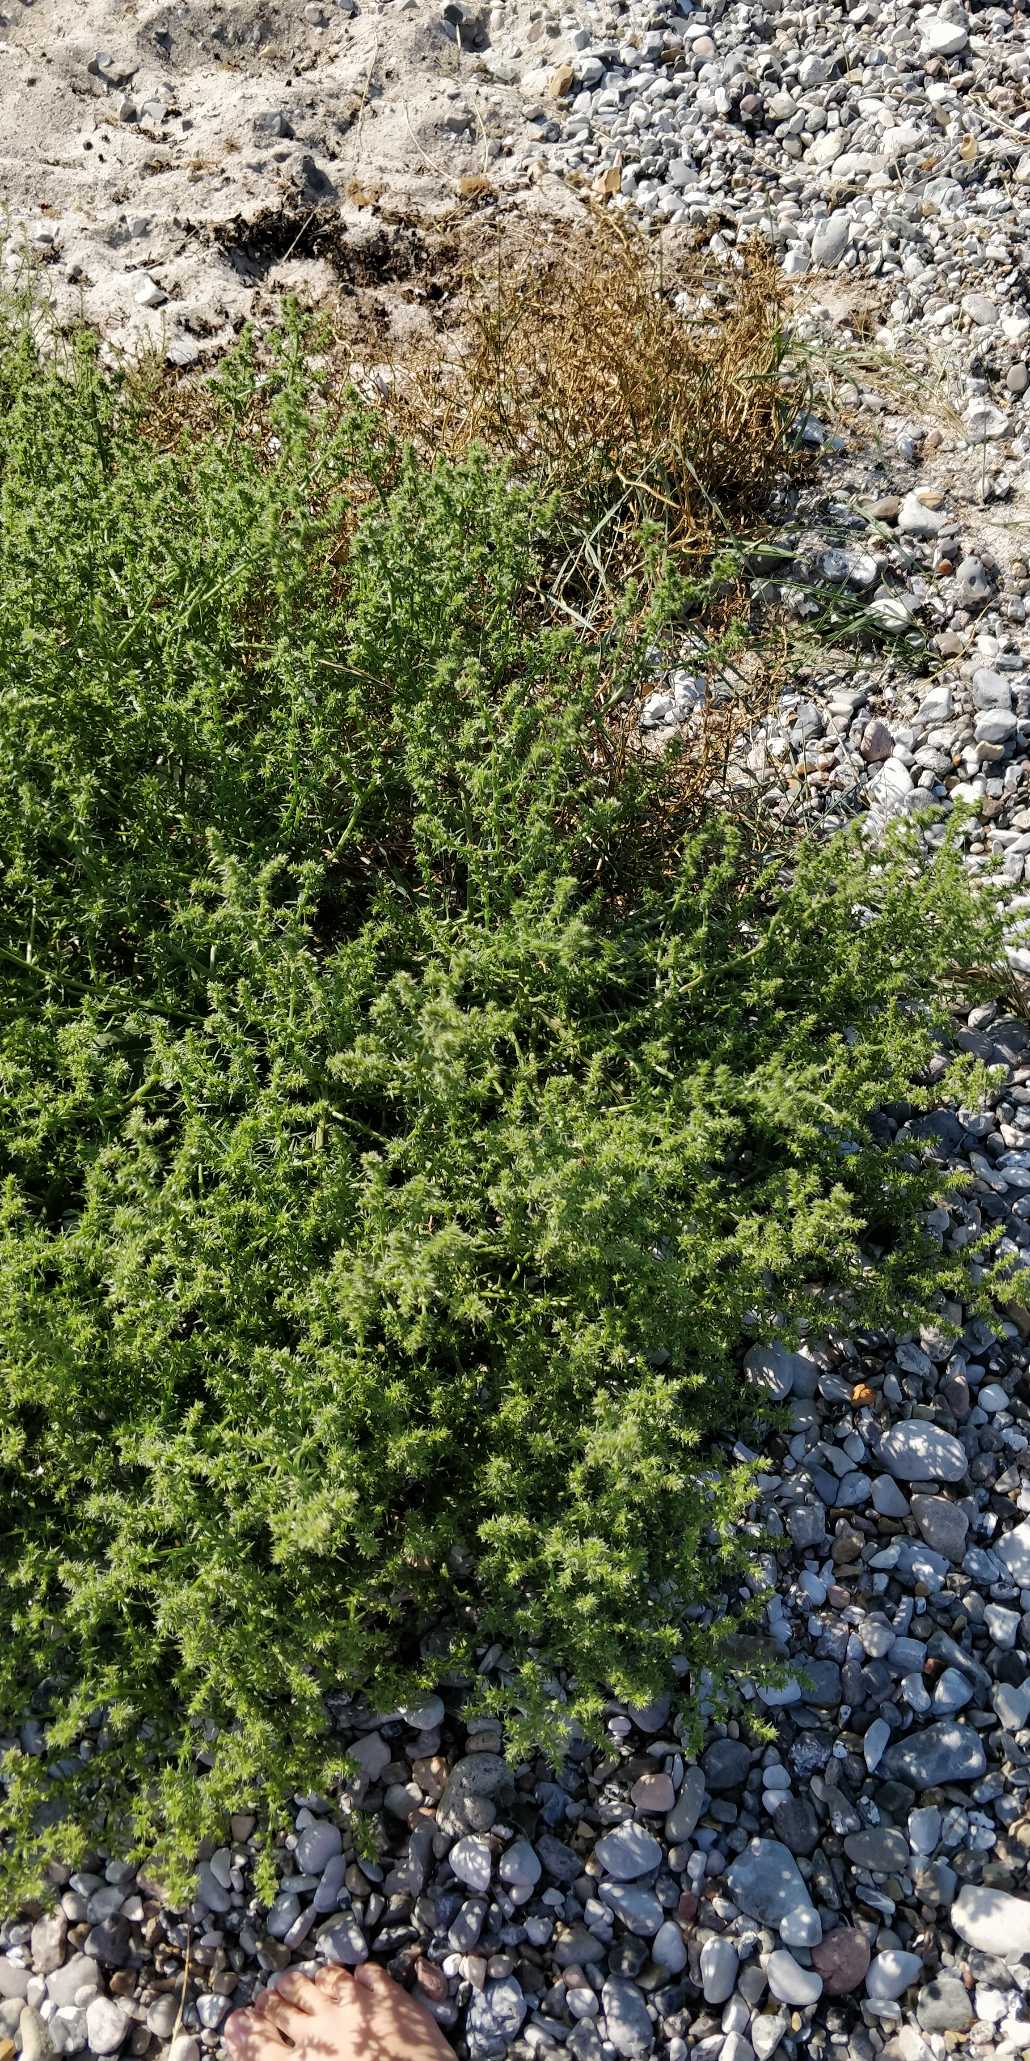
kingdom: Plantae
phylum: Tracheophyta
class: Magnoliopsida
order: Caryophyllales
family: Amaranthaceae
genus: Salsola
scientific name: Salsola kali
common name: Sodaurt
